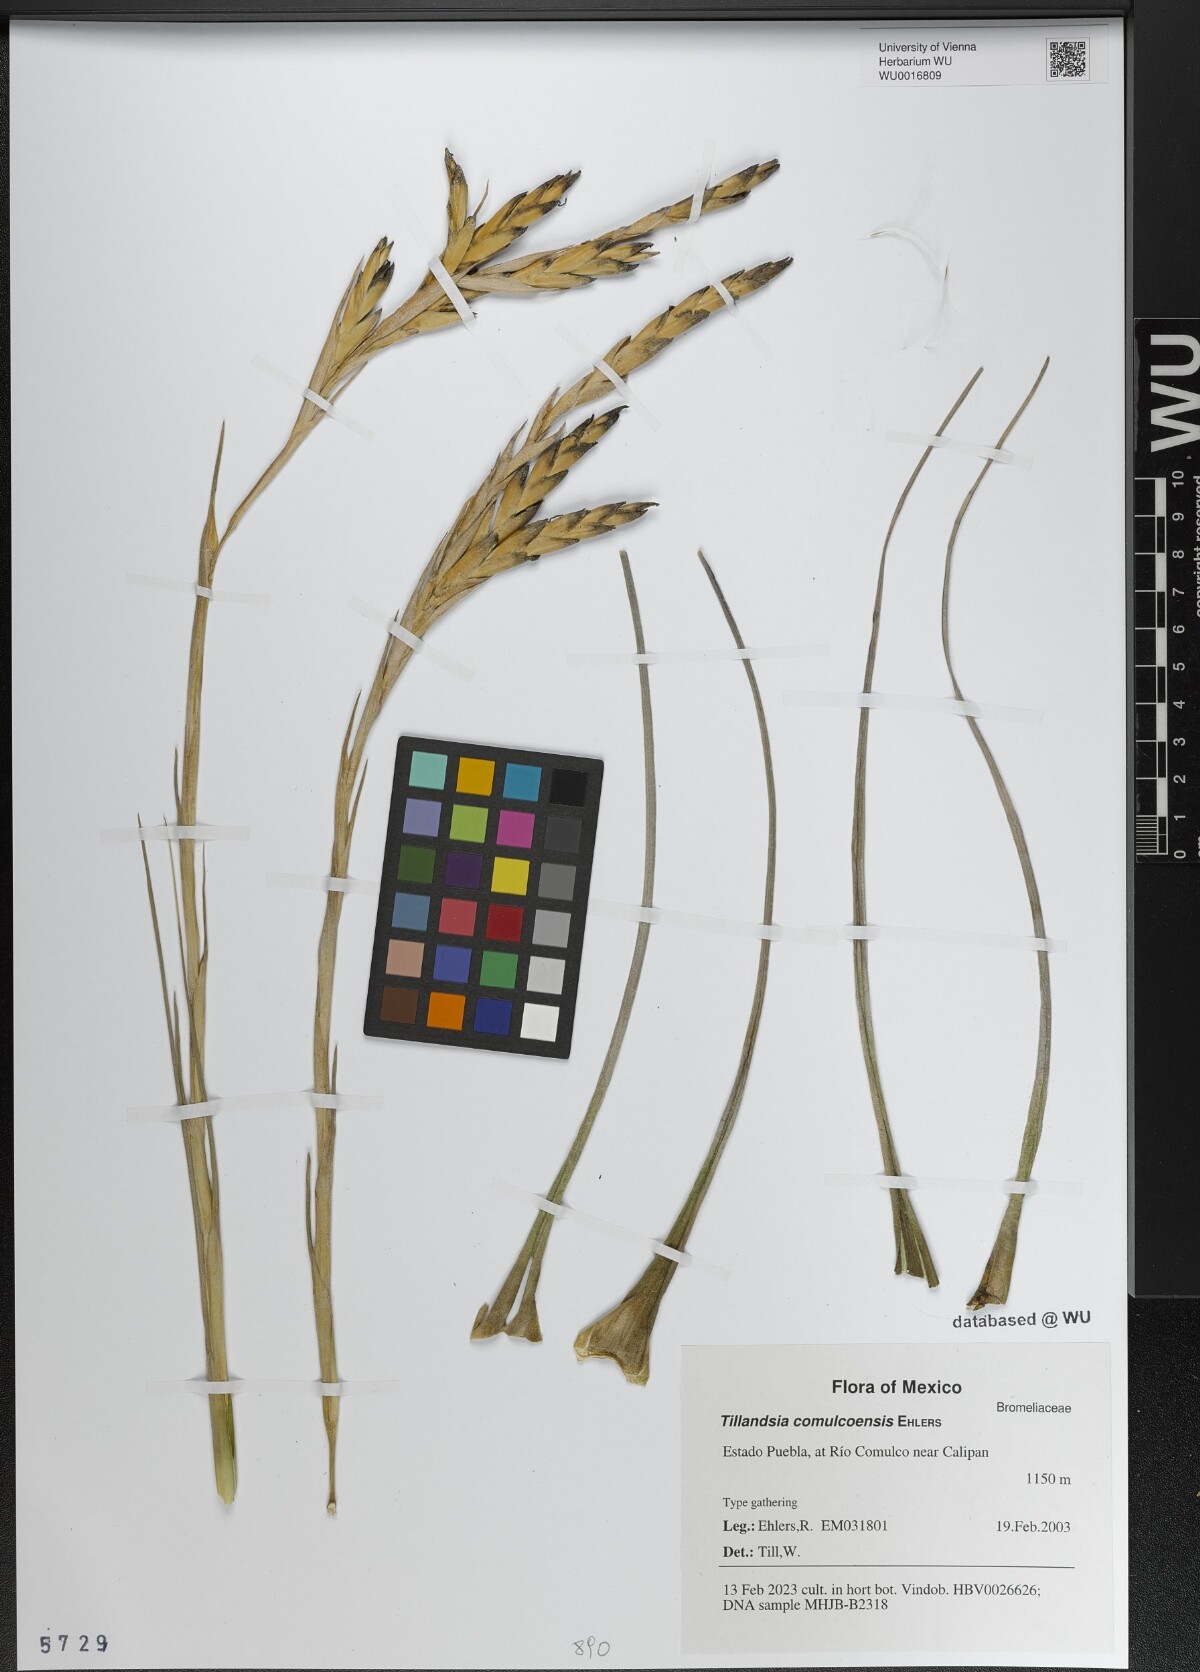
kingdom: Plantae
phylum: Tracheophyta
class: Liliopsida
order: Poales
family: Bromeliaceae
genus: Tillandsia
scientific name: Tillandsia comulcoensis
